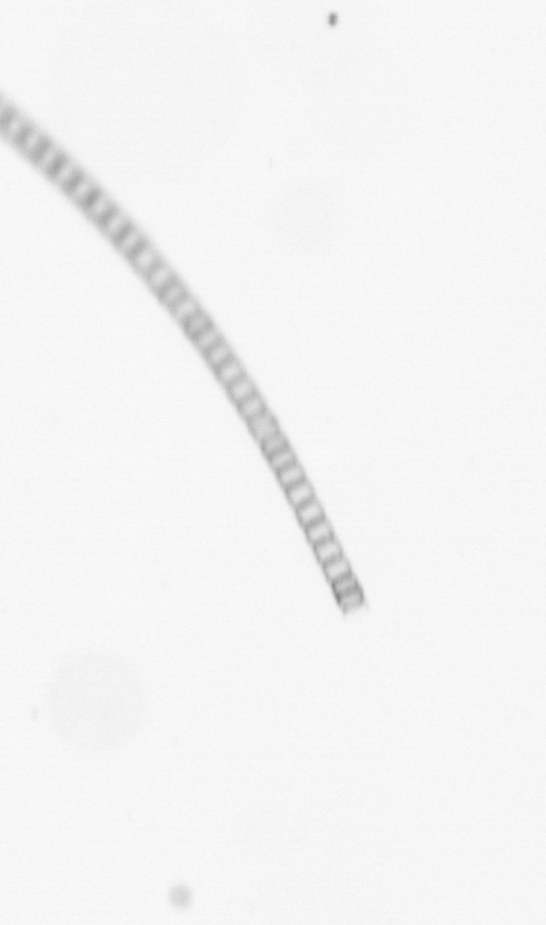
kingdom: Chromista
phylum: Ochrophyta
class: Bacillariophyceae
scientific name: Bacillariophyceae
